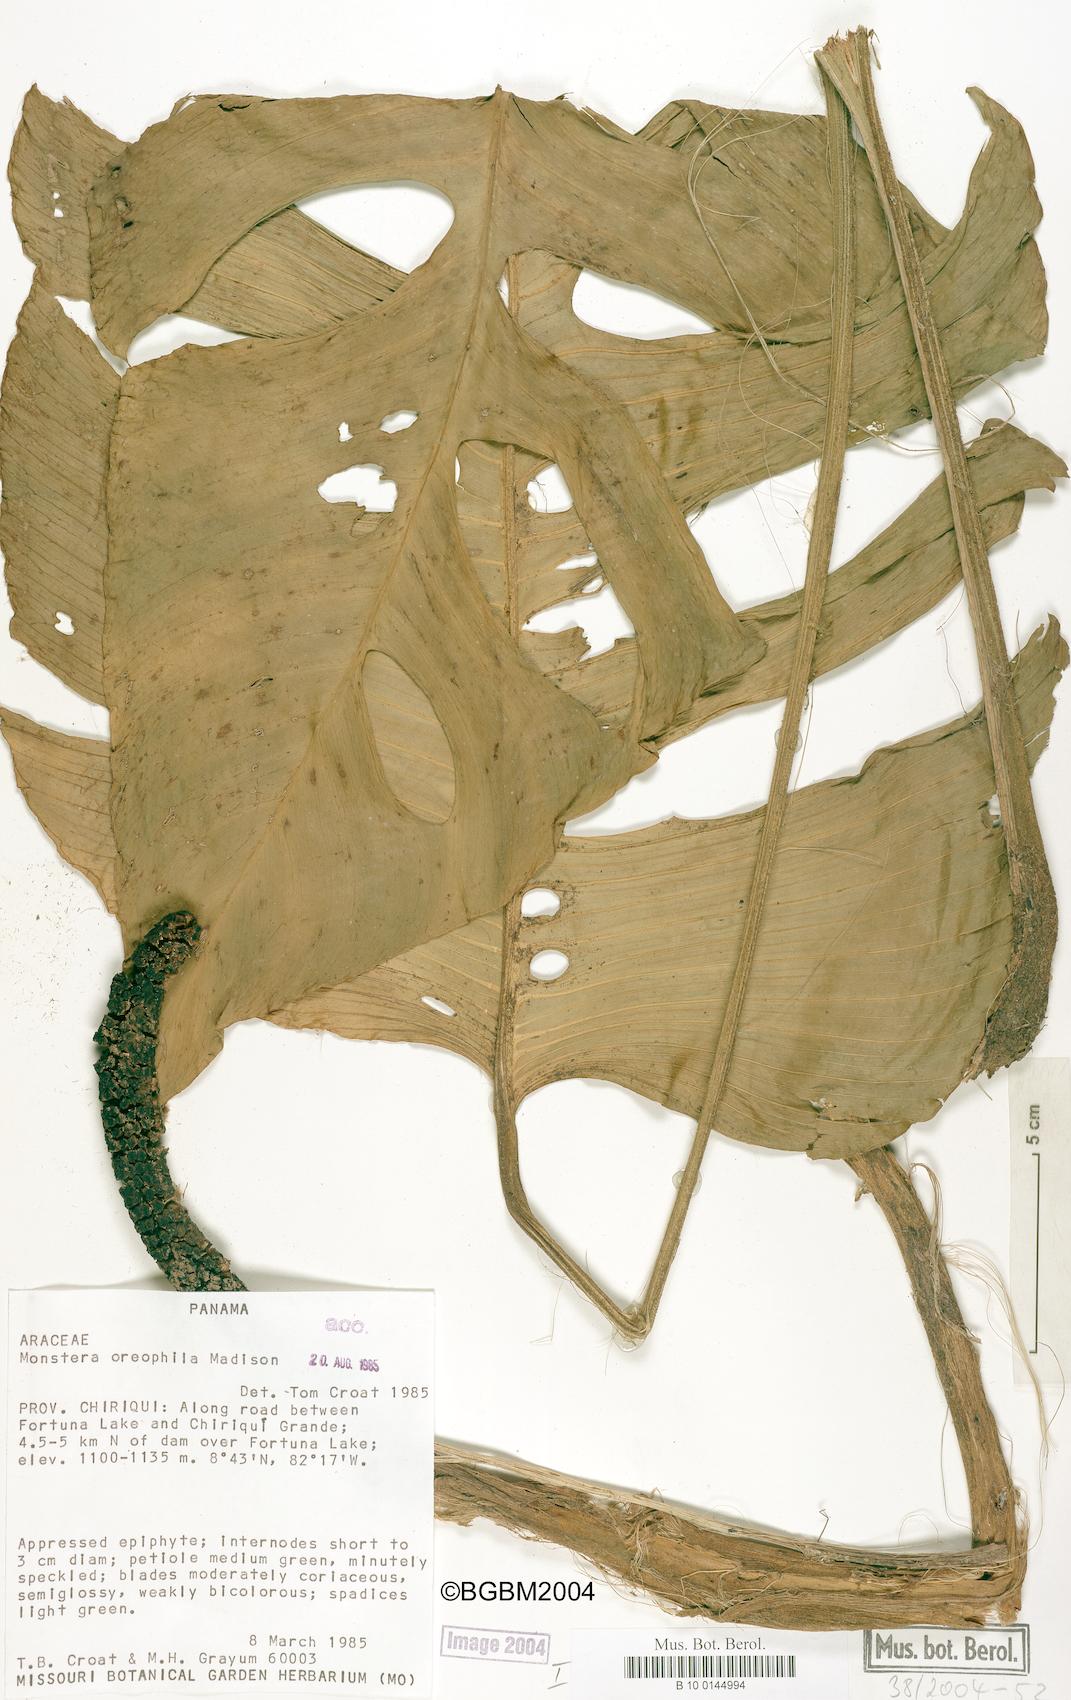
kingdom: Plantae
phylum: Tracheophyta
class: Liliopsida
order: Alismatales
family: Araceae
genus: Monstera
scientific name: Monstera oreophila
